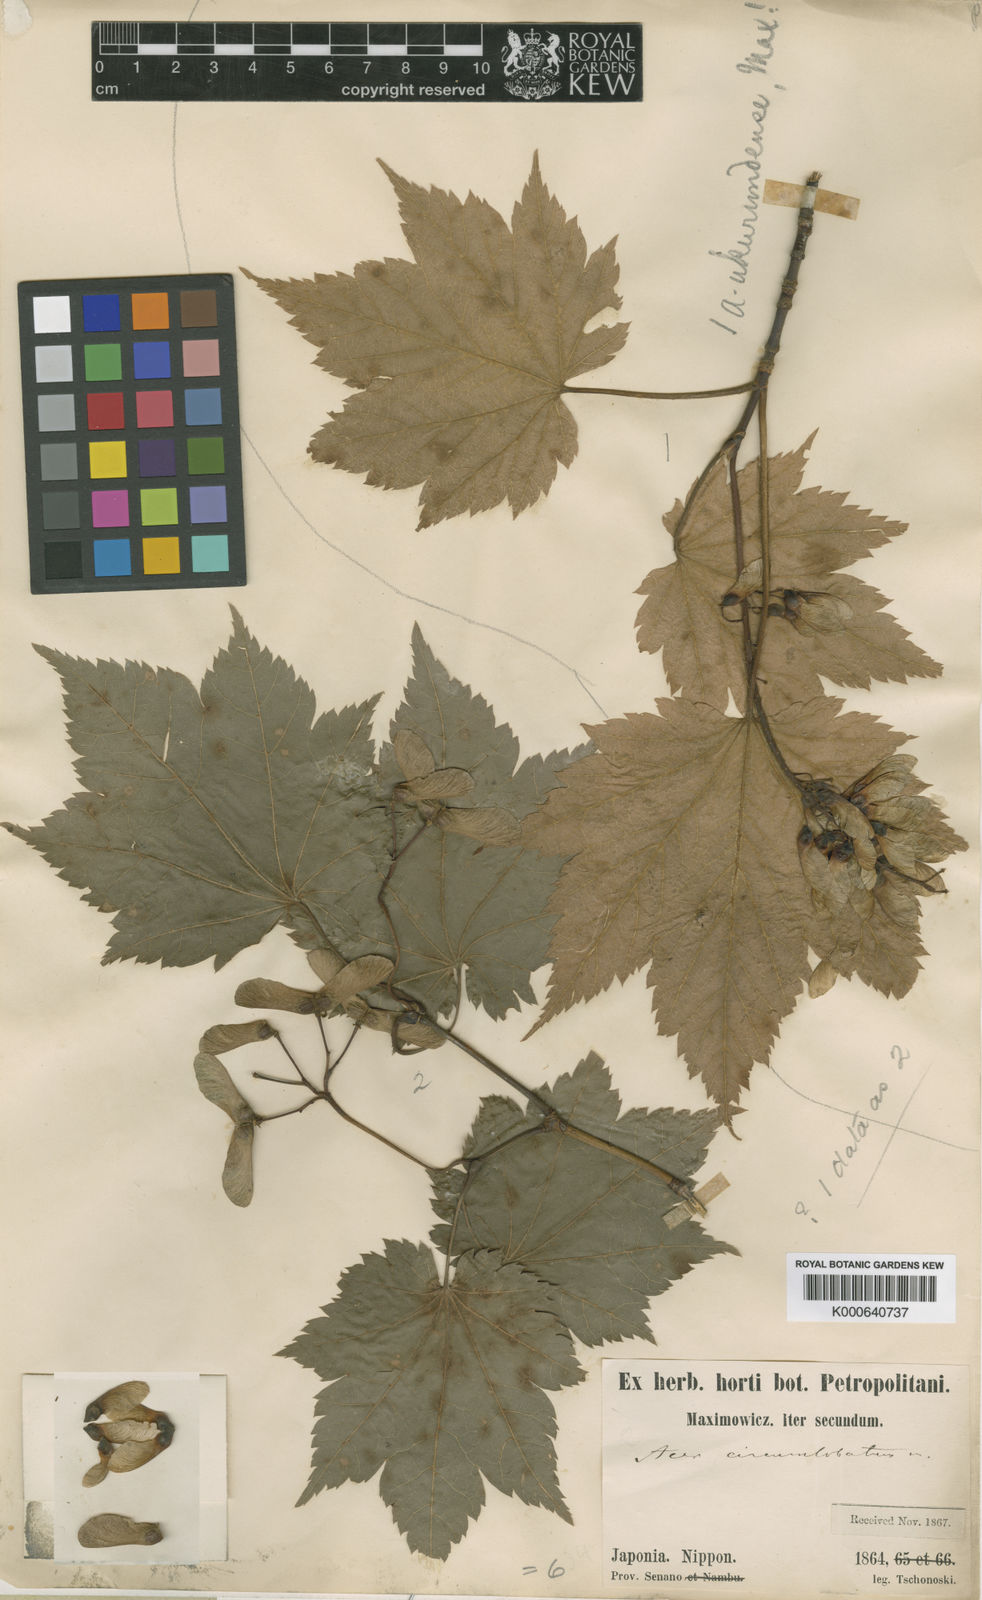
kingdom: Plantae
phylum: Tracheophyta
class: Magnoliopsida
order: Sapindales
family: Sapindaceae
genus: Acer
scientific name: Acer japonicum
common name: Amur maple
